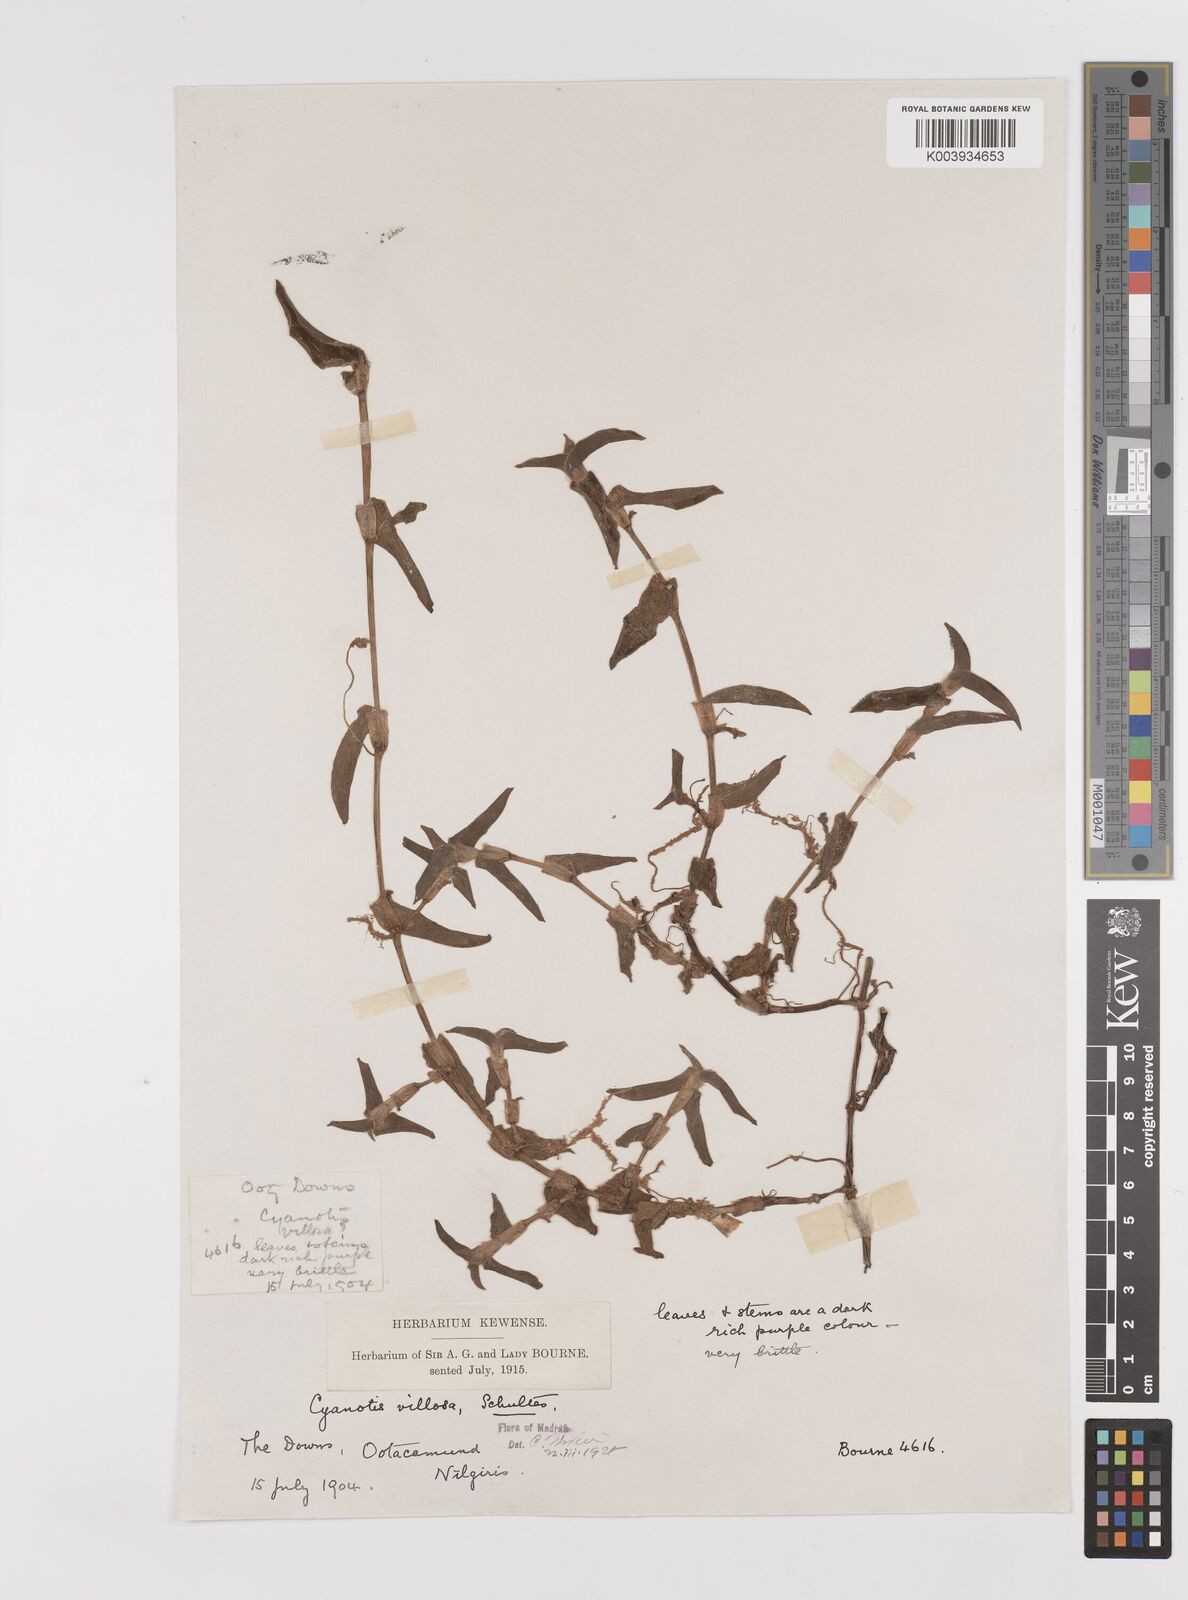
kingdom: Plantae
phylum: Tracheophyta
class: Liliopsida
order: Commelinales
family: Commelinaceae
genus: Cyanotis
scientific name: Cyanotis villosa
